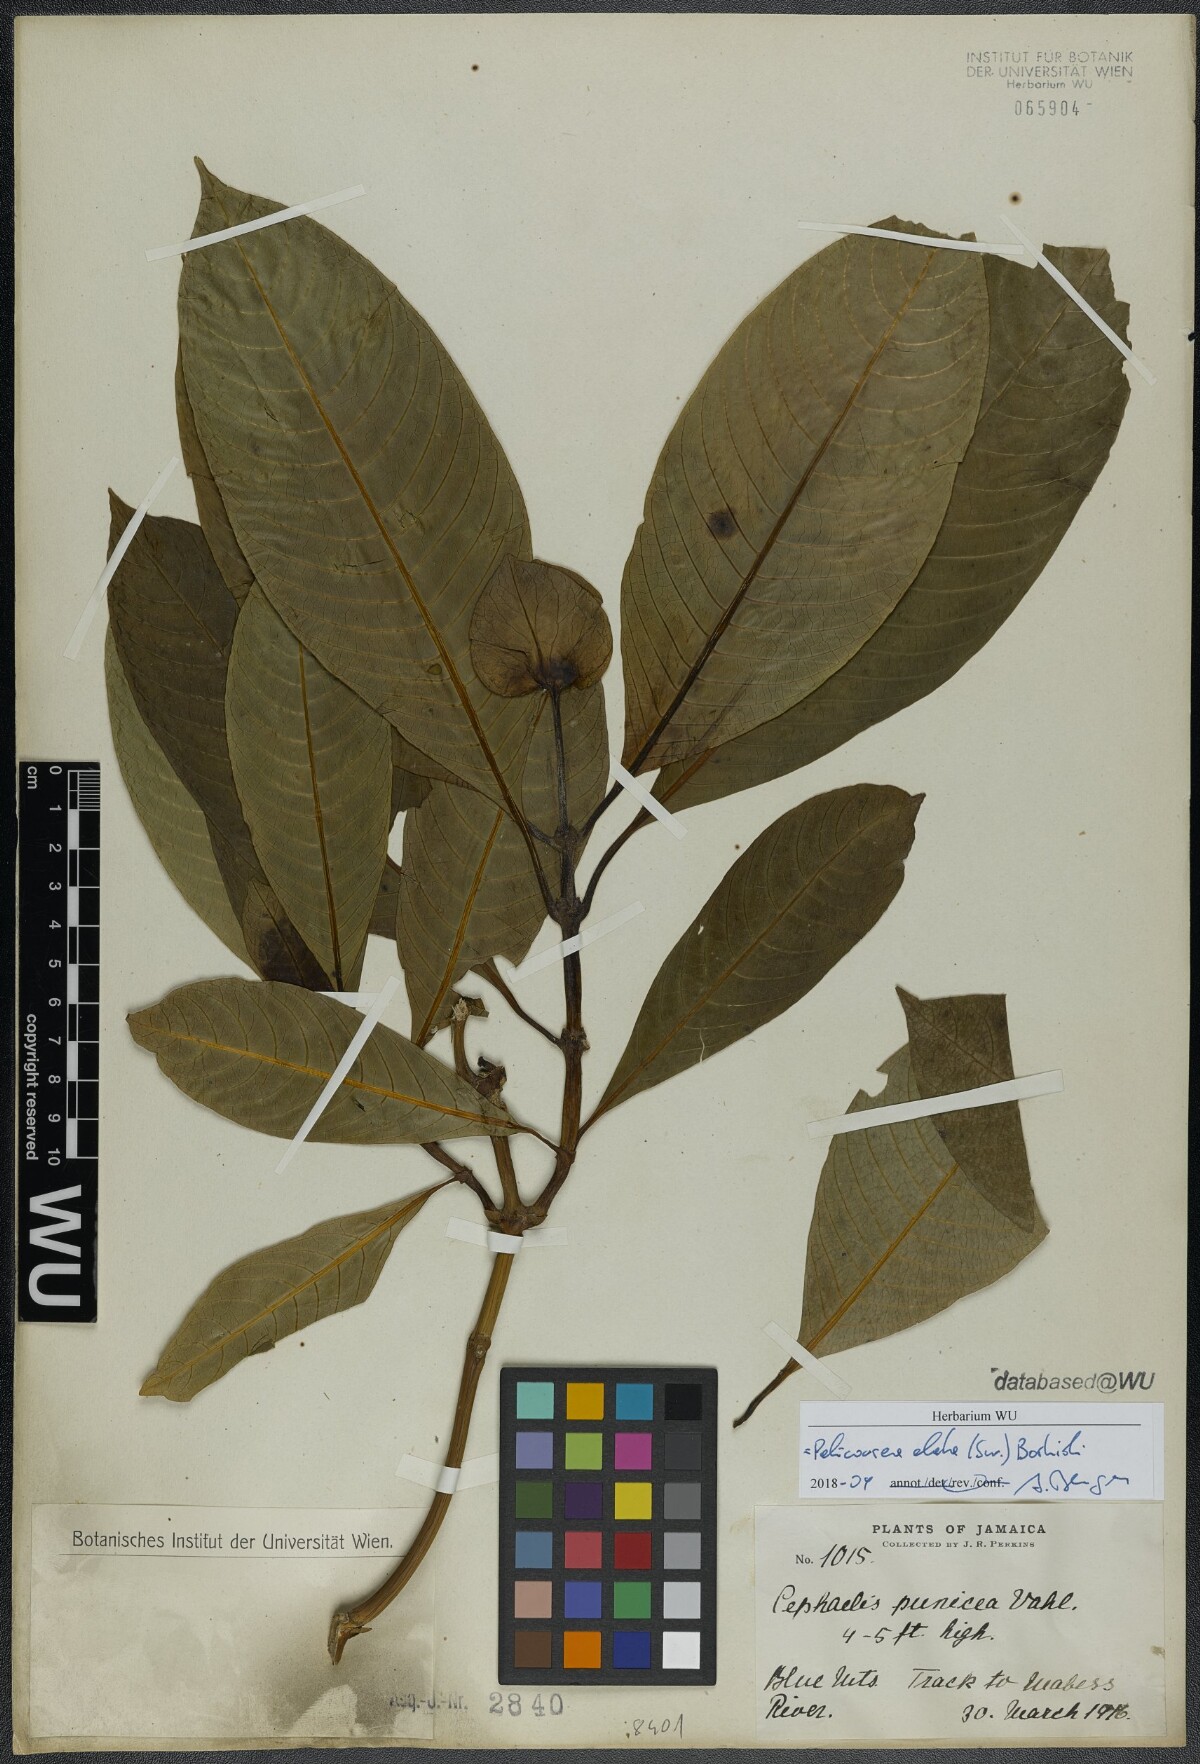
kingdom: Plantae
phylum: Tracheophyta
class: Magnoliopsida
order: Gentianales
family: Rubiaceae
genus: Palicourea
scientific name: Palicourea elata
